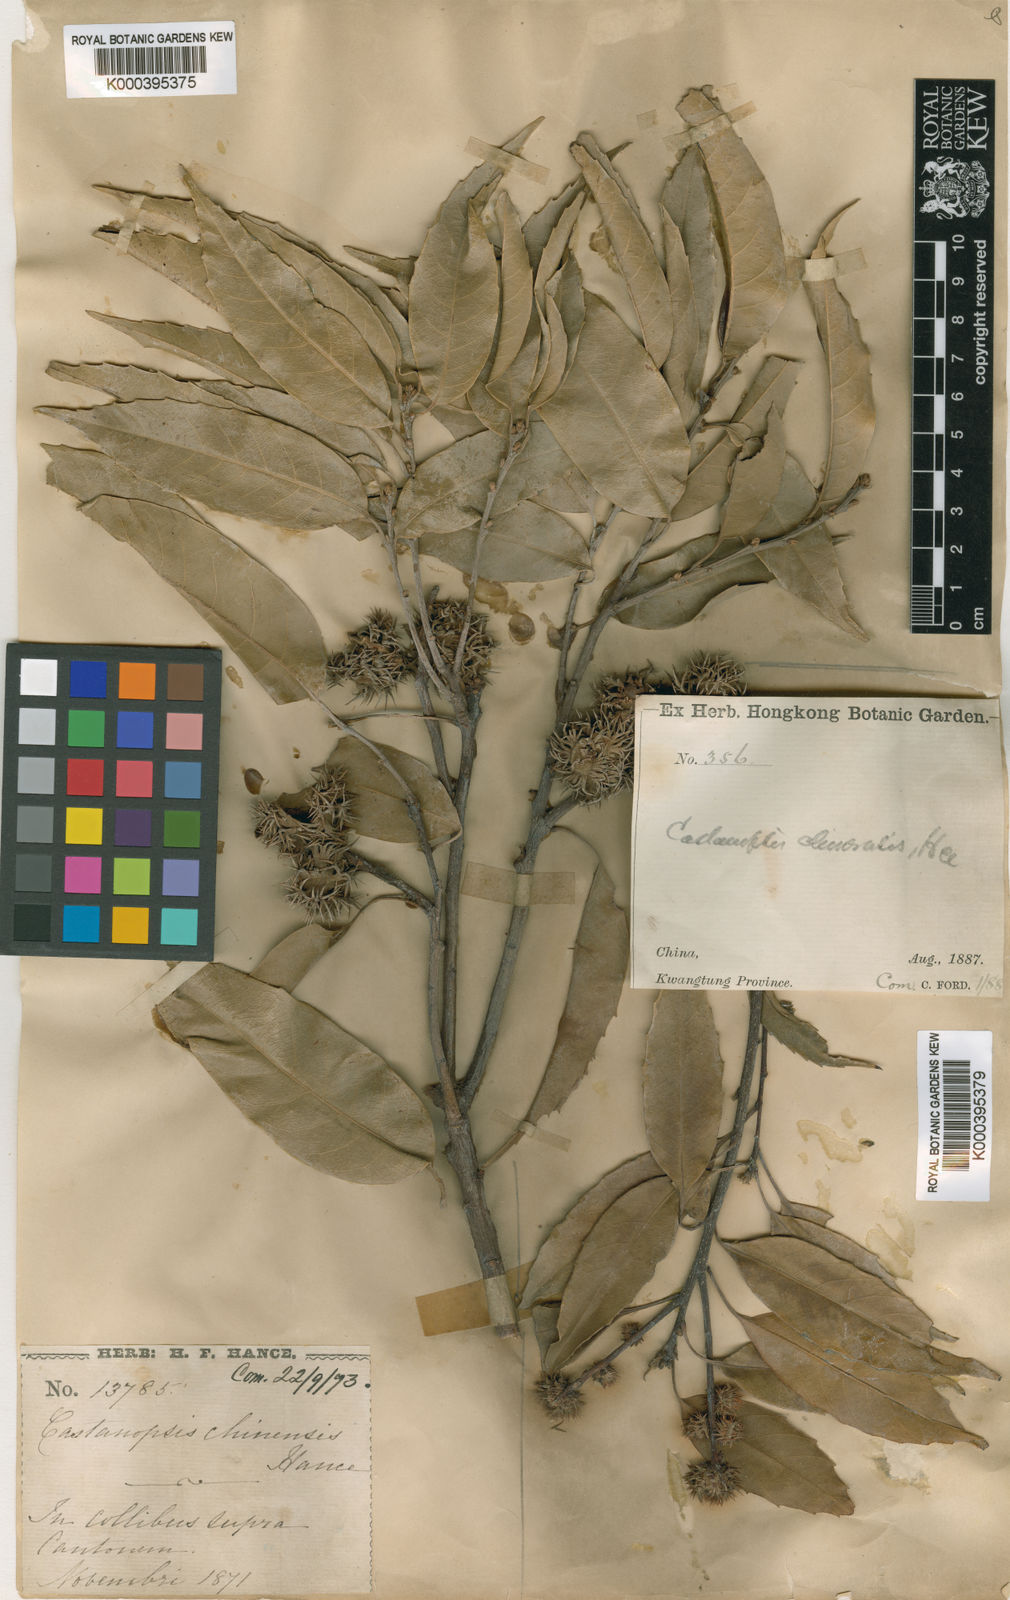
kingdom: Plantae
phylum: Tracheophyta
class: Magnoliopsida
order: Fagales
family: Fagaceae
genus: Castanopsis
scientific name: Castanopsis chinensis
